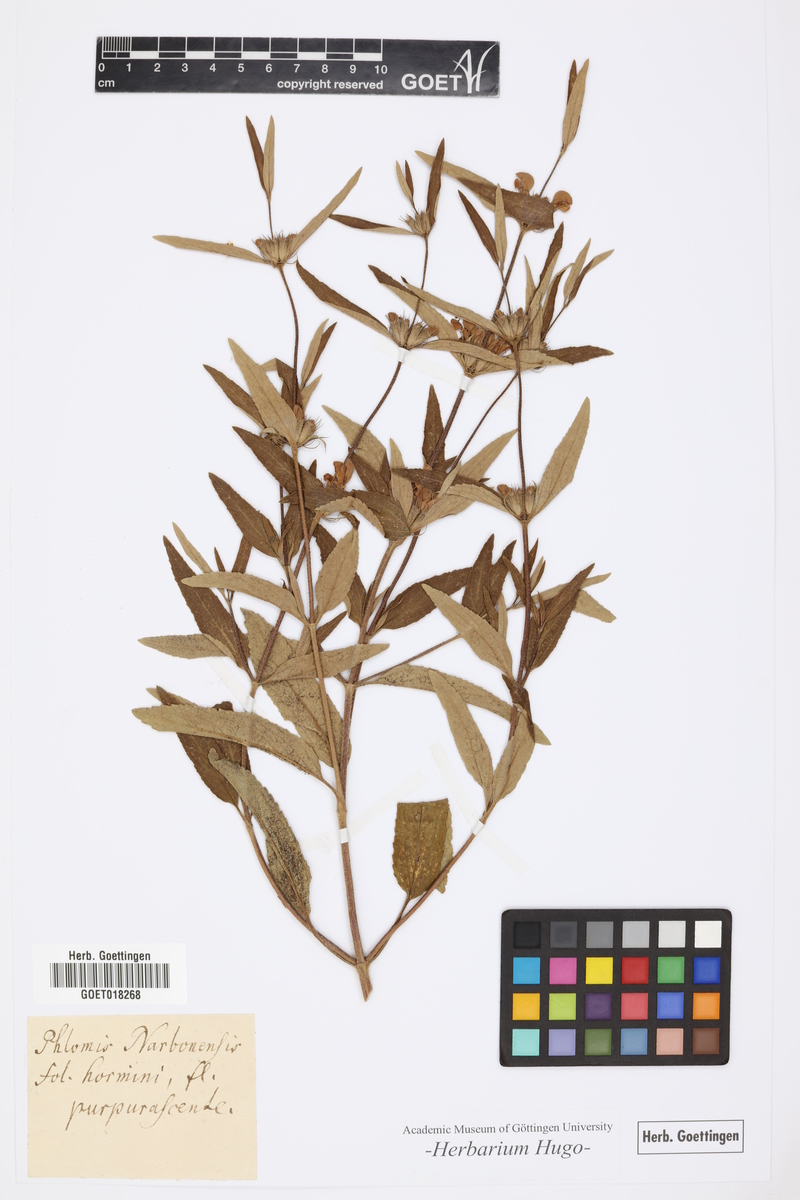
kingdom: Plantae
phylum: Tracheophyta
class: Magnoliopsida
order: Lamiales
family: Lamiaceae
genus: Phlomis
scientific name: Phlomis herba-venti
